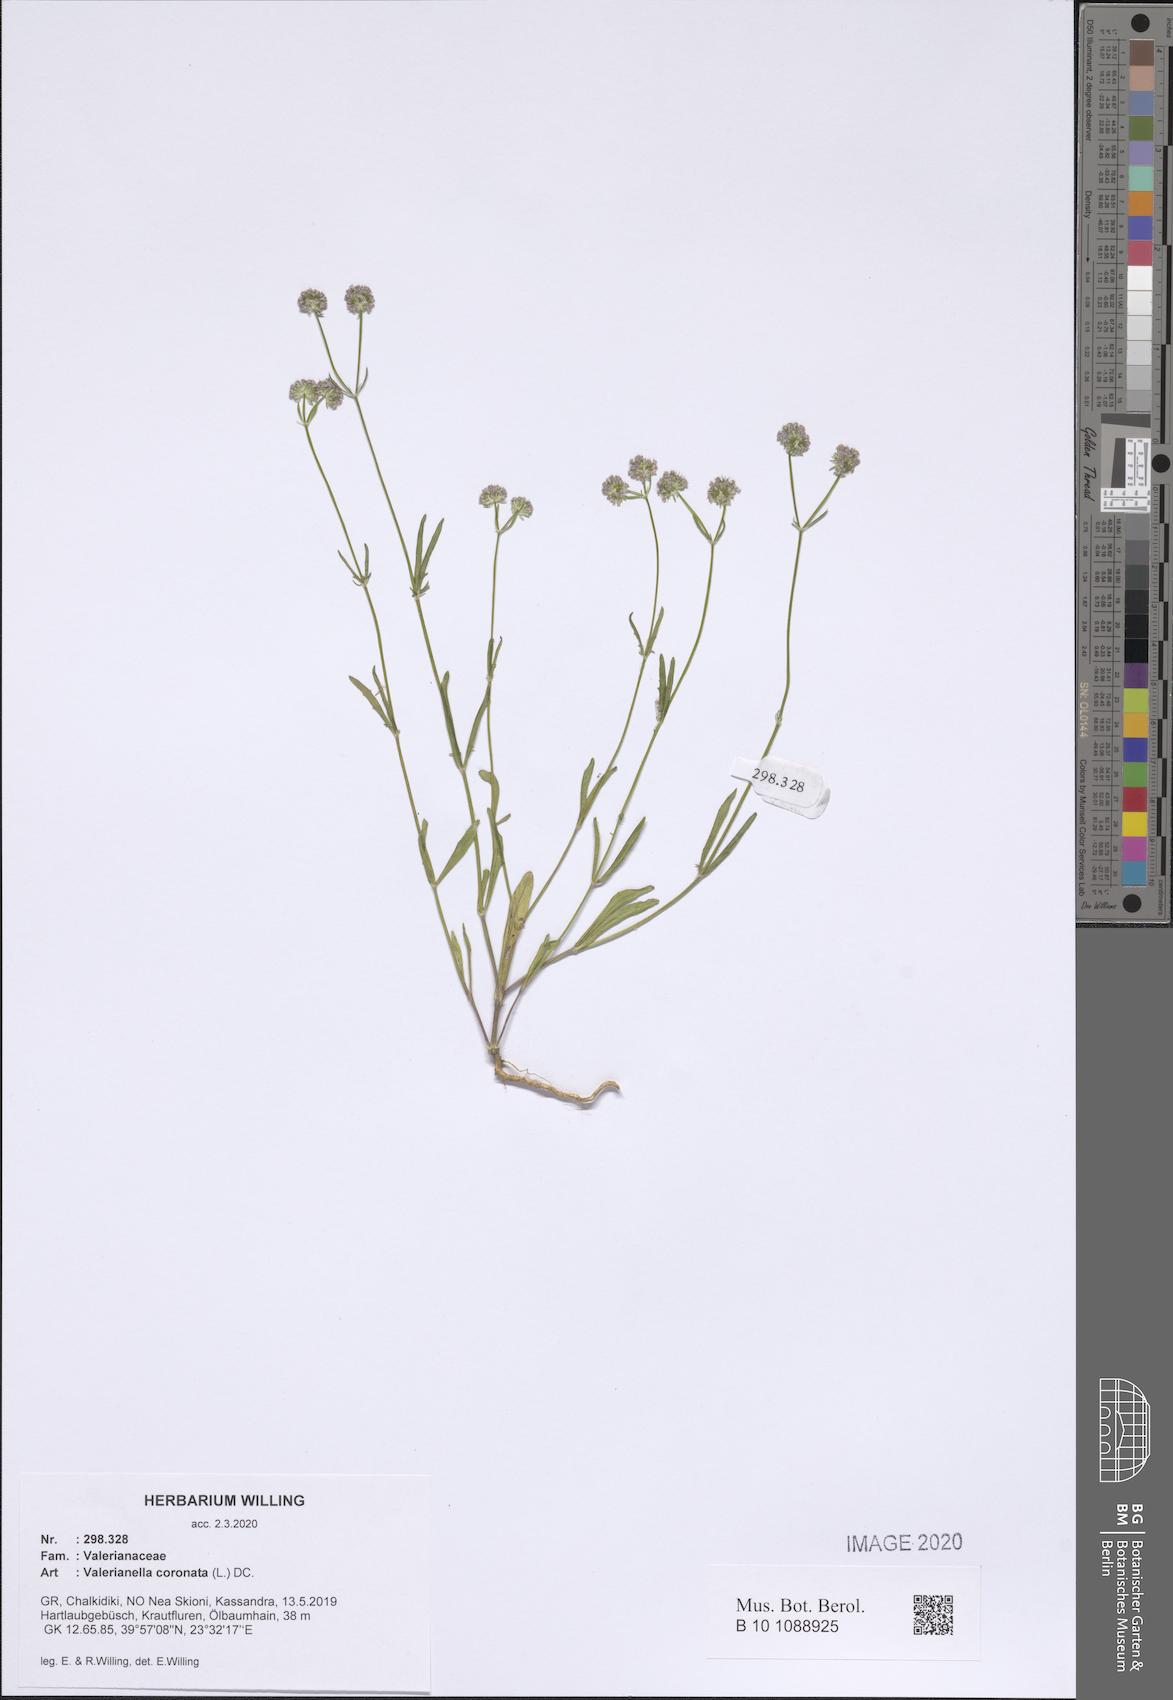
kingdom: Plantae
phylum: Tracheophyta
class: Magnoliopsida
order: Dipsacales
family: Caprifoliaceae
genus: Valerianella
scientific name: Valerianella coronata
